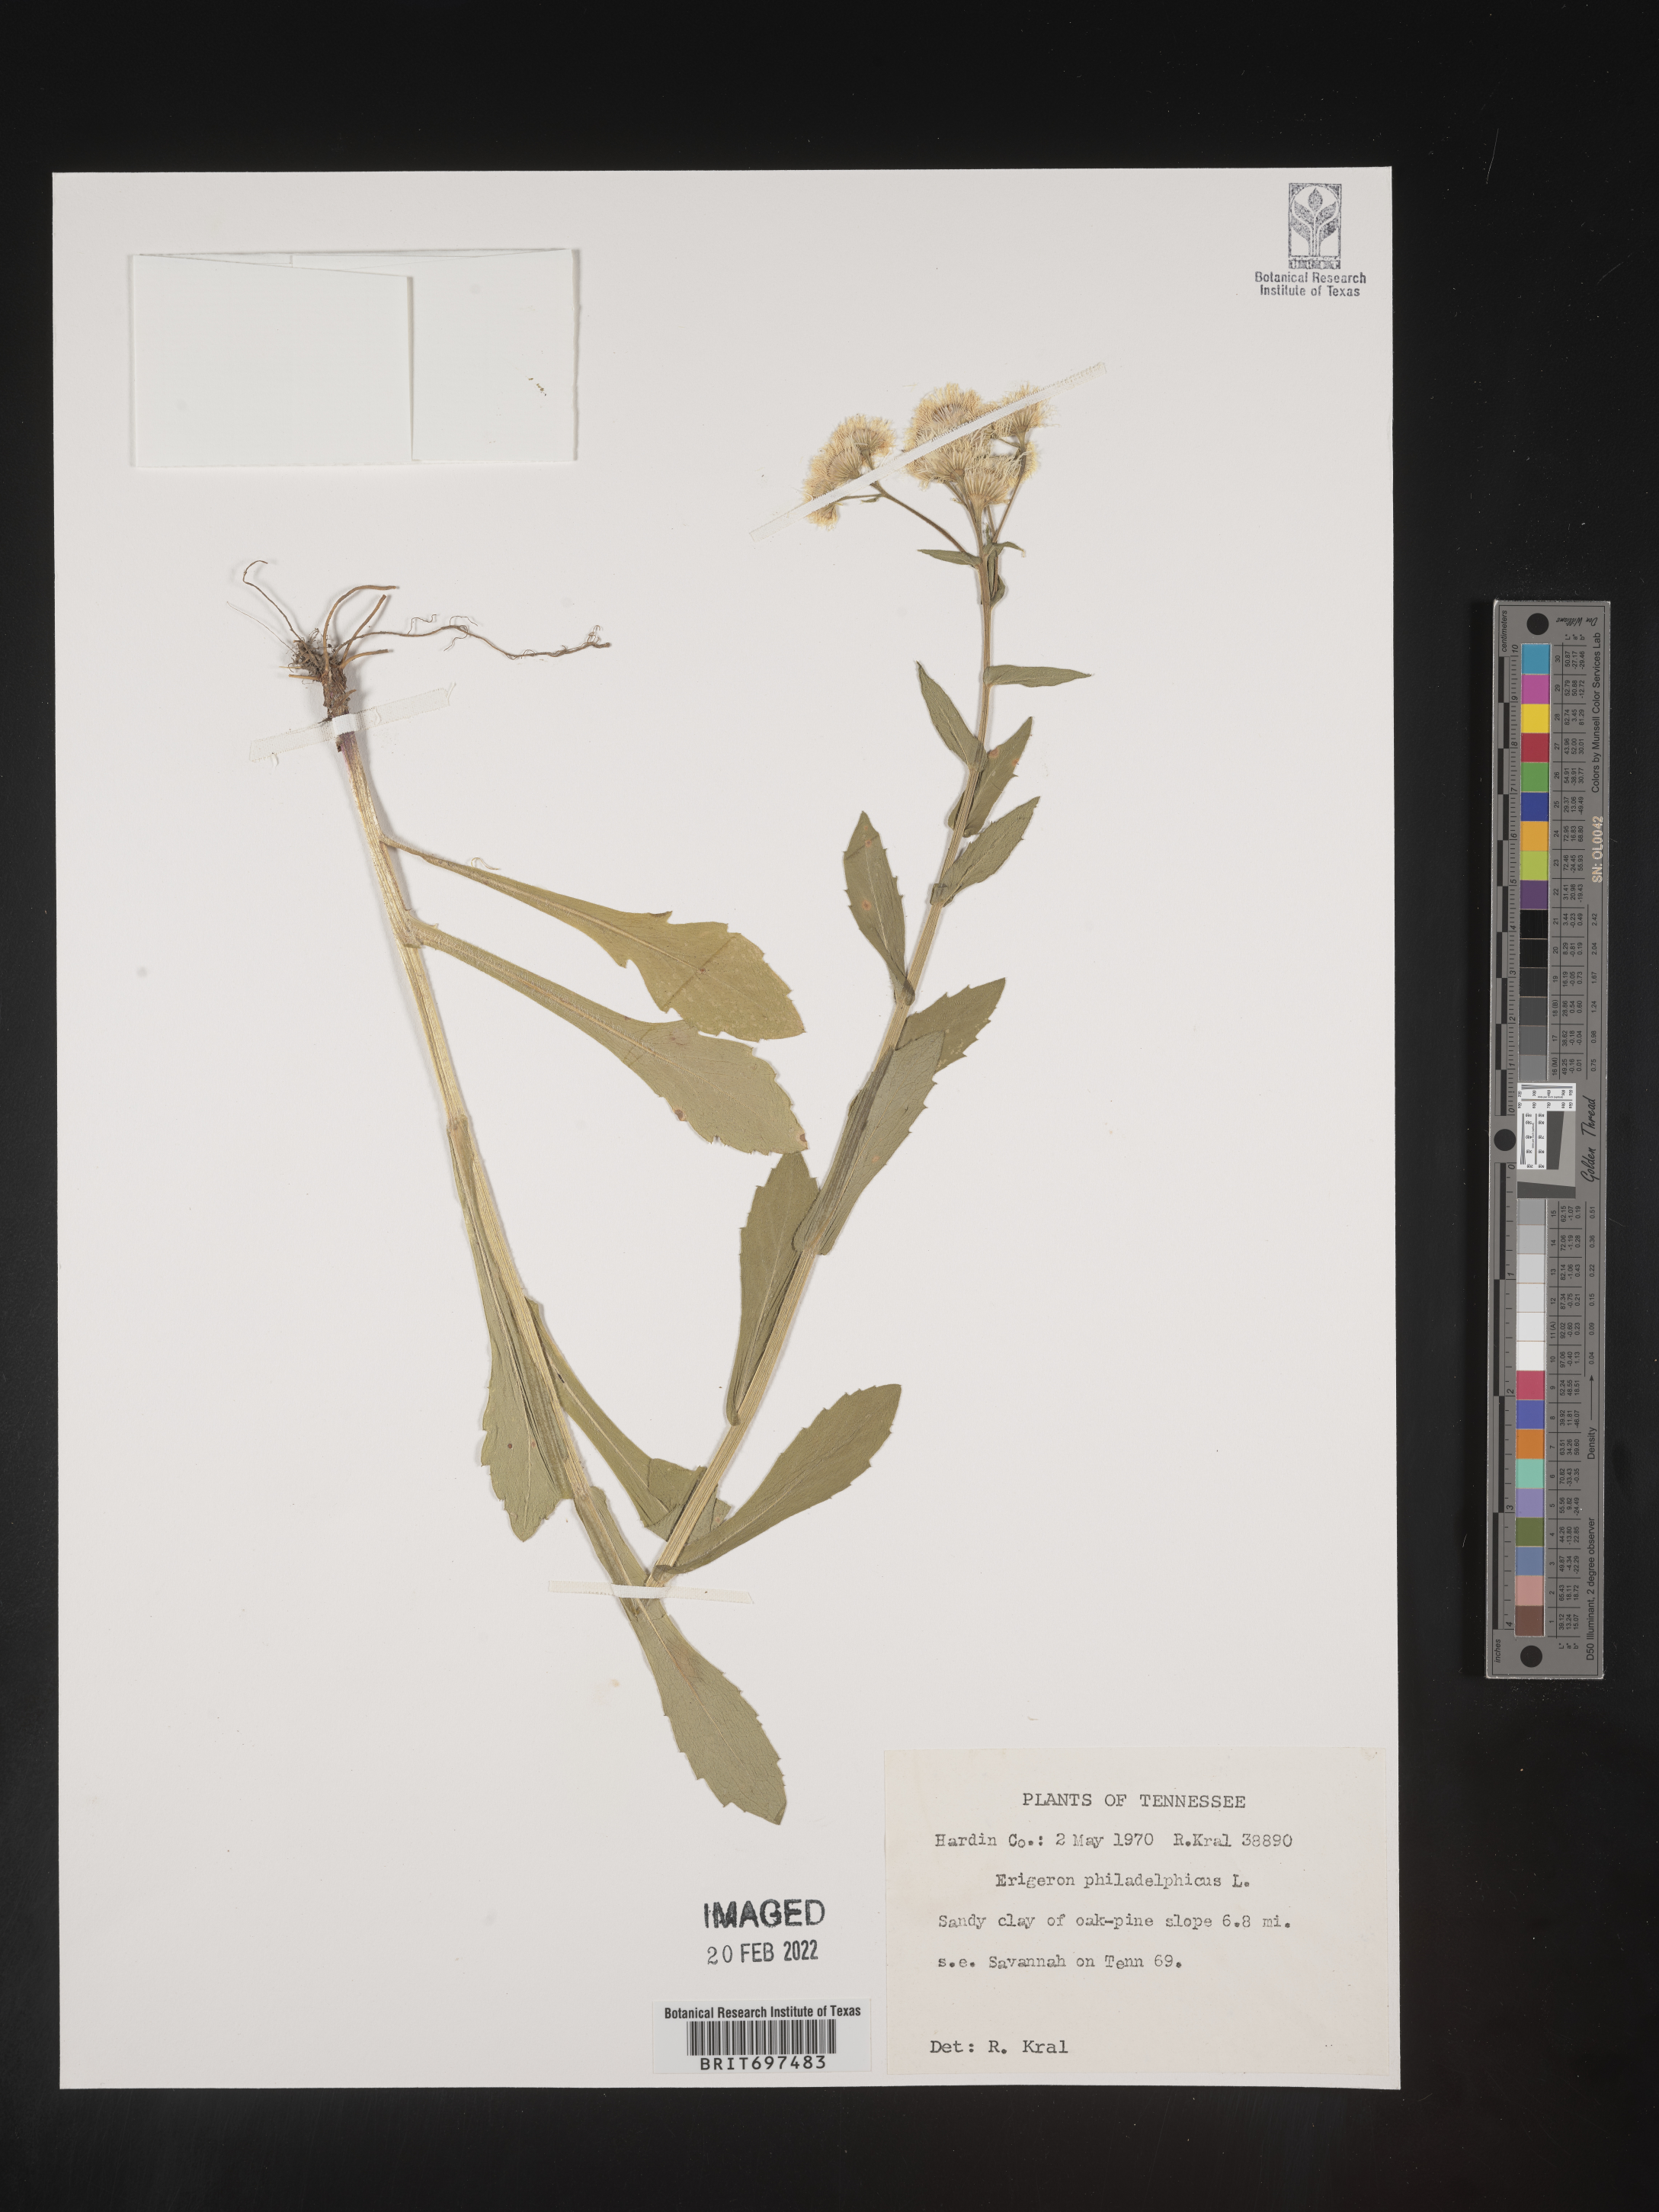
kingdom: Plantae
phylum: Tracheophyta
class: Magnoliopsida
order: Asterales
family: Asteraceae
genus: Erigeron
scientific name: Erigeron philadelphicus
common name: Robin's-plantain
